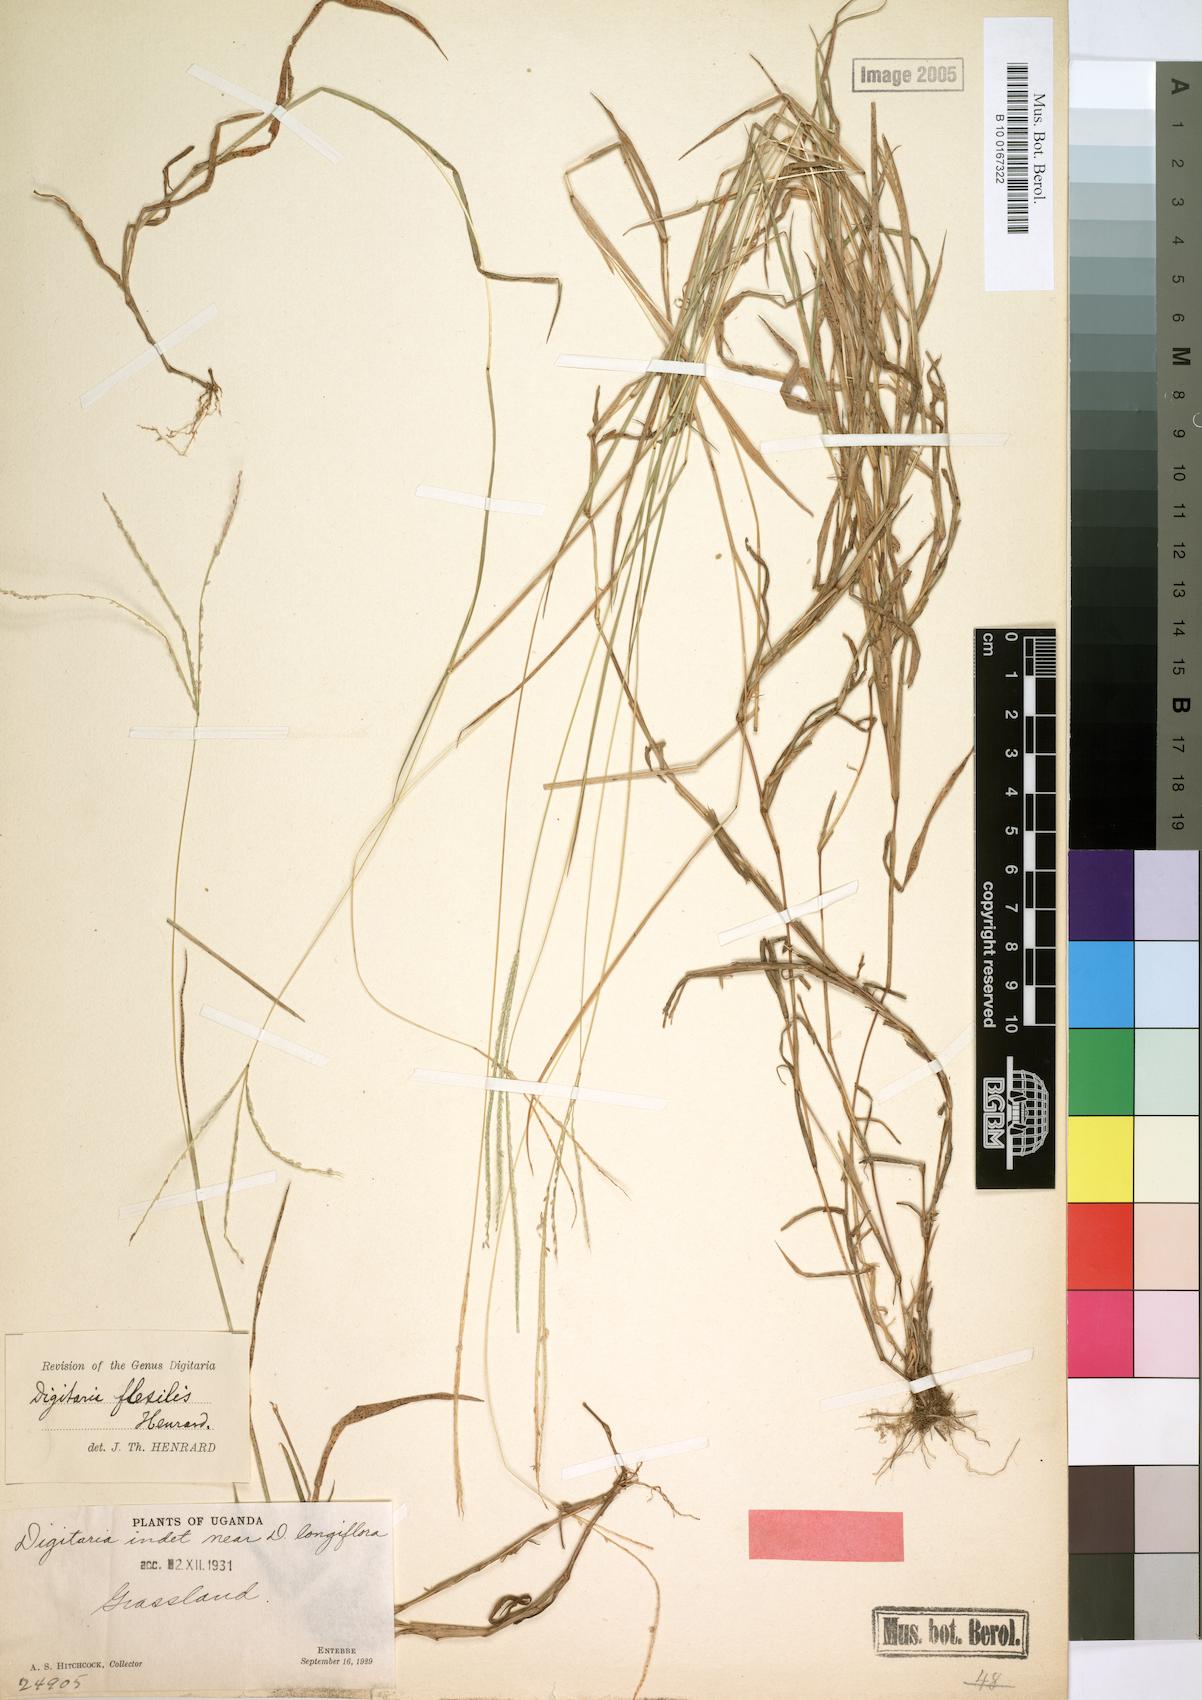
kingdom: Plantae
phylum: Tracheophyta
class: Liliopsida
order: Poales
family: Poaceae
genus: Digitaria
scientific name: Digitaria longiflora
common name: Wire crabgrass
